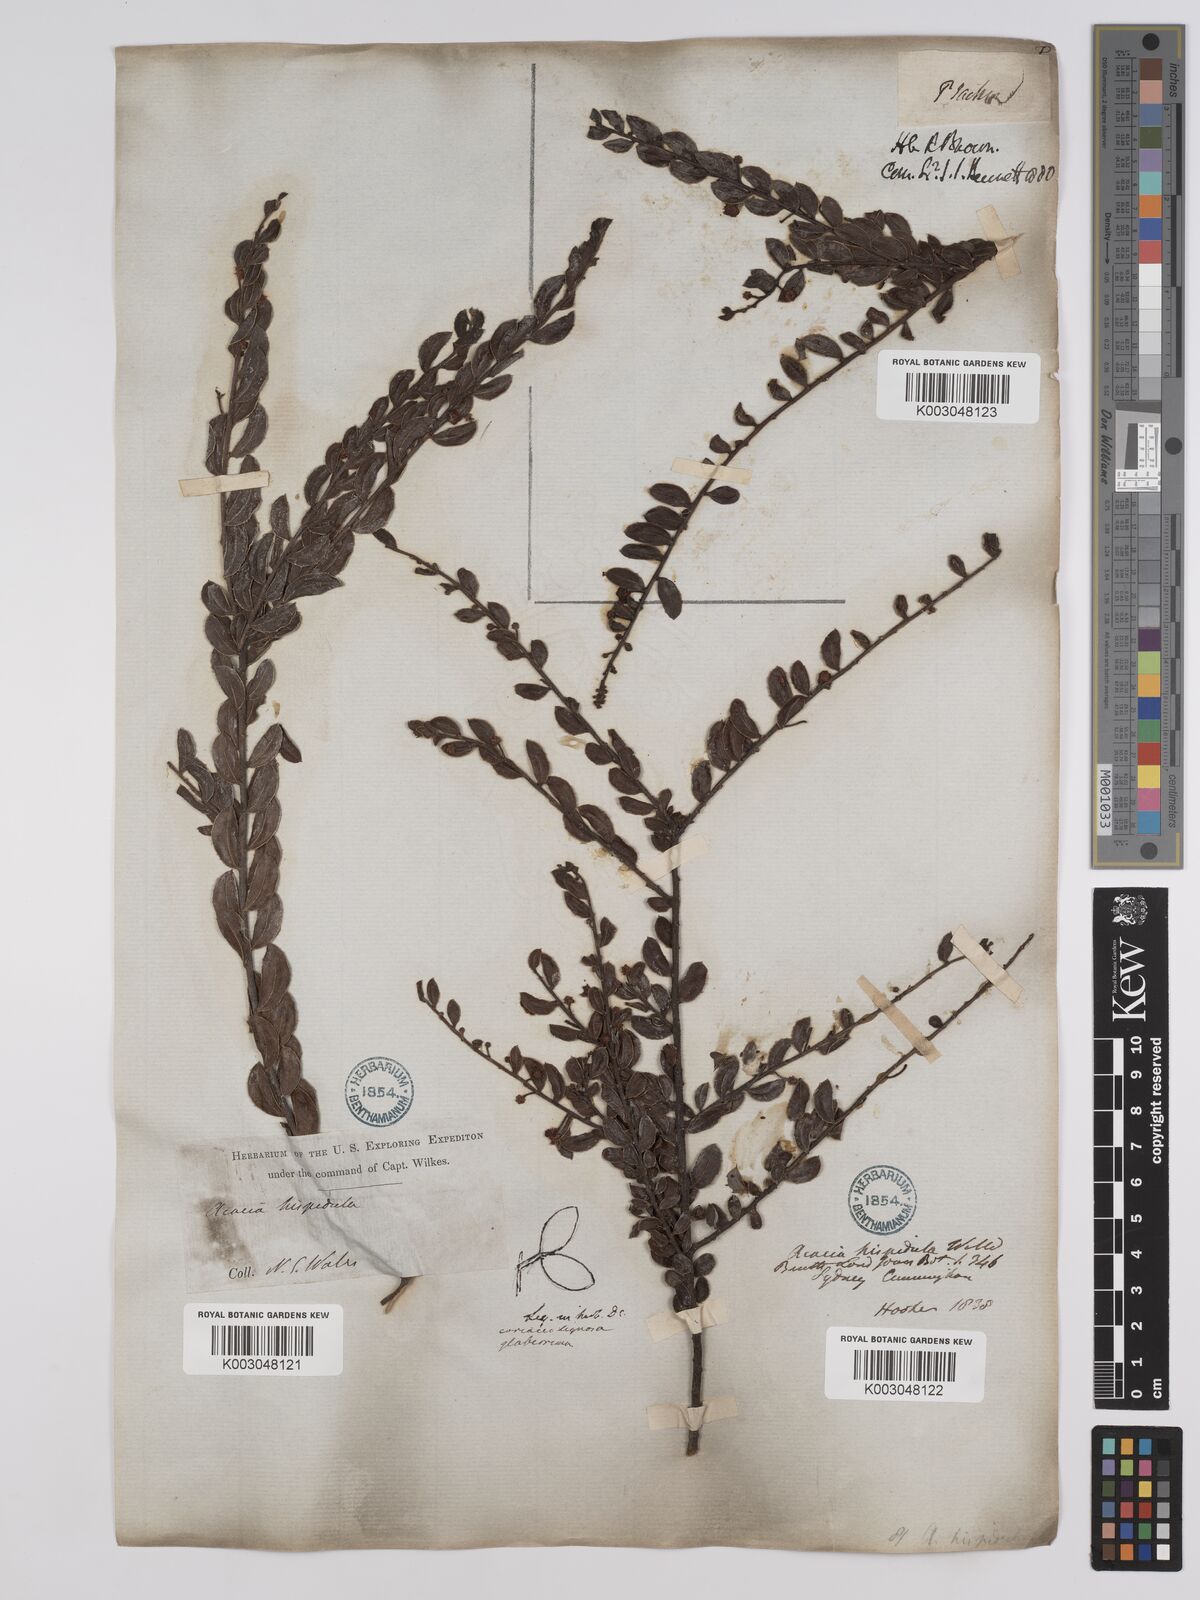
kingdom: Plantae
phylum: Tracheophyta
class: Magnoliopsida
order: Fabales
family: Fabaceae
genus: Acacia
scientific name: Acacia hispidula
